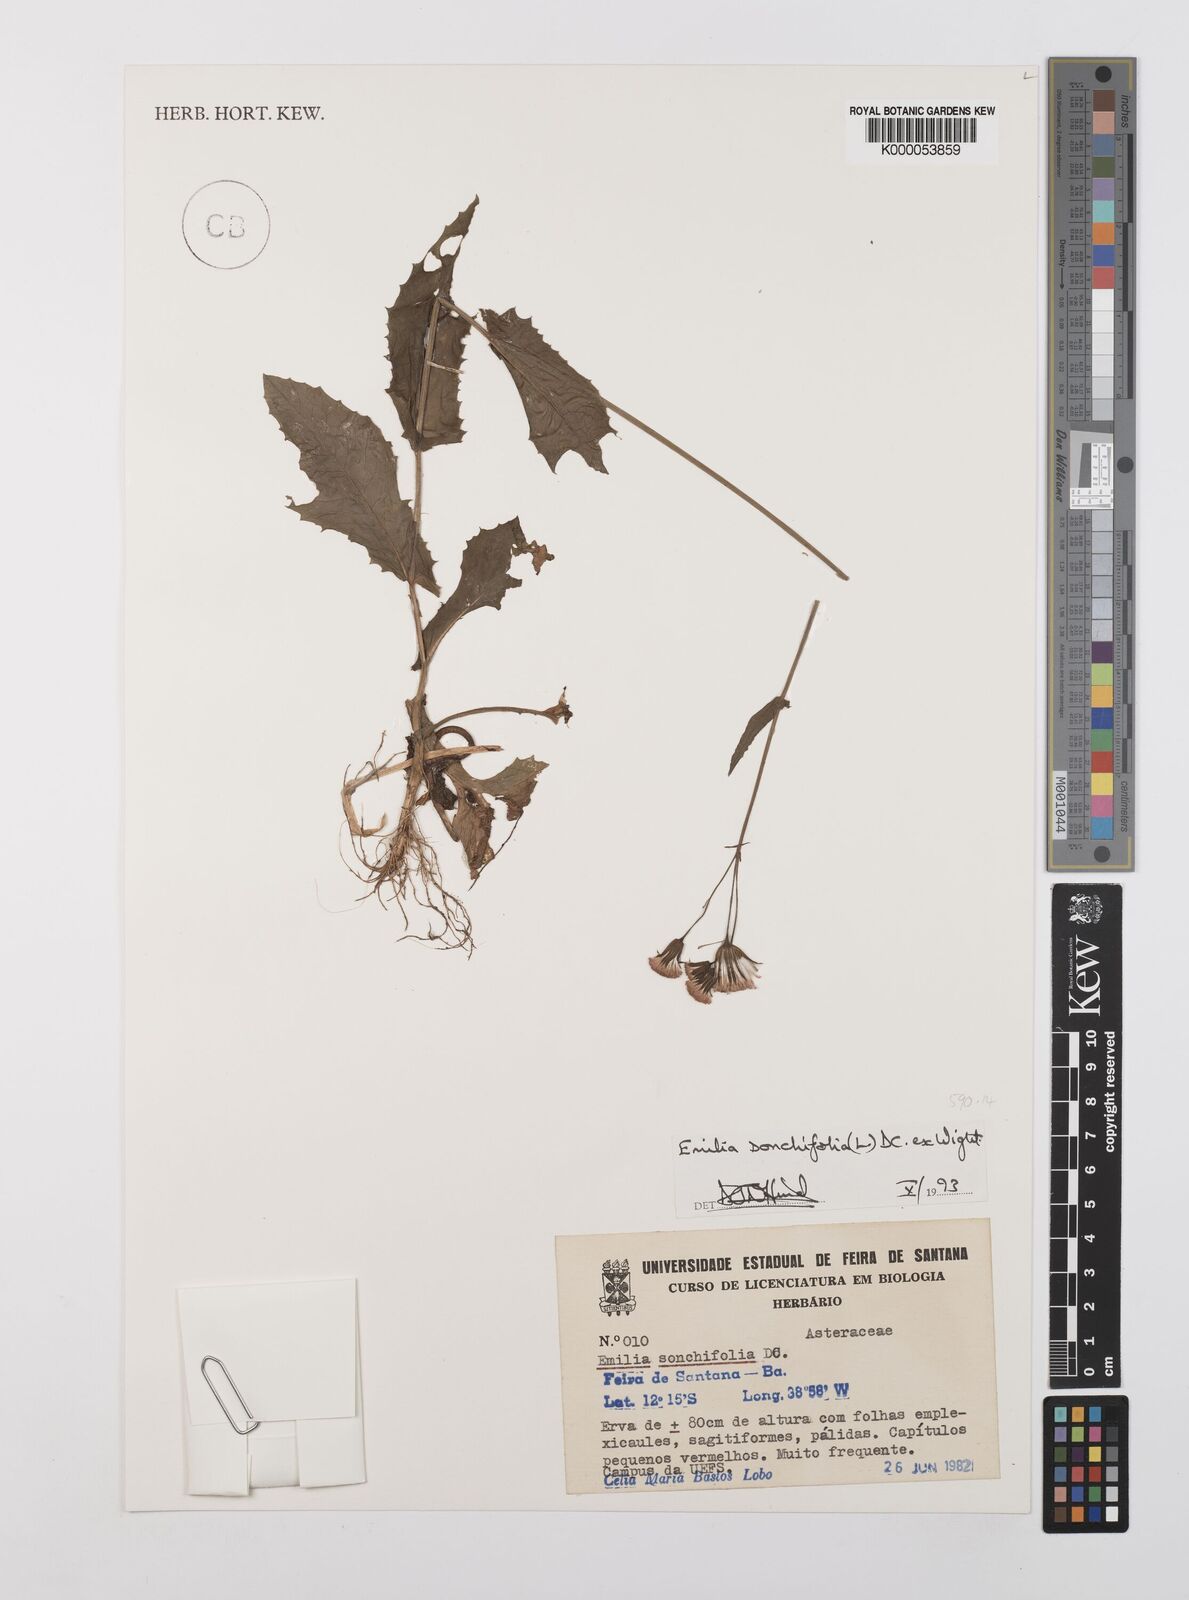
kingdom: Plantae
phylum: Tracheophyta
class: Magnoliopsida
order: Asterales
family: Asteraceae
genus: Emilia
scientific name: Emilia
